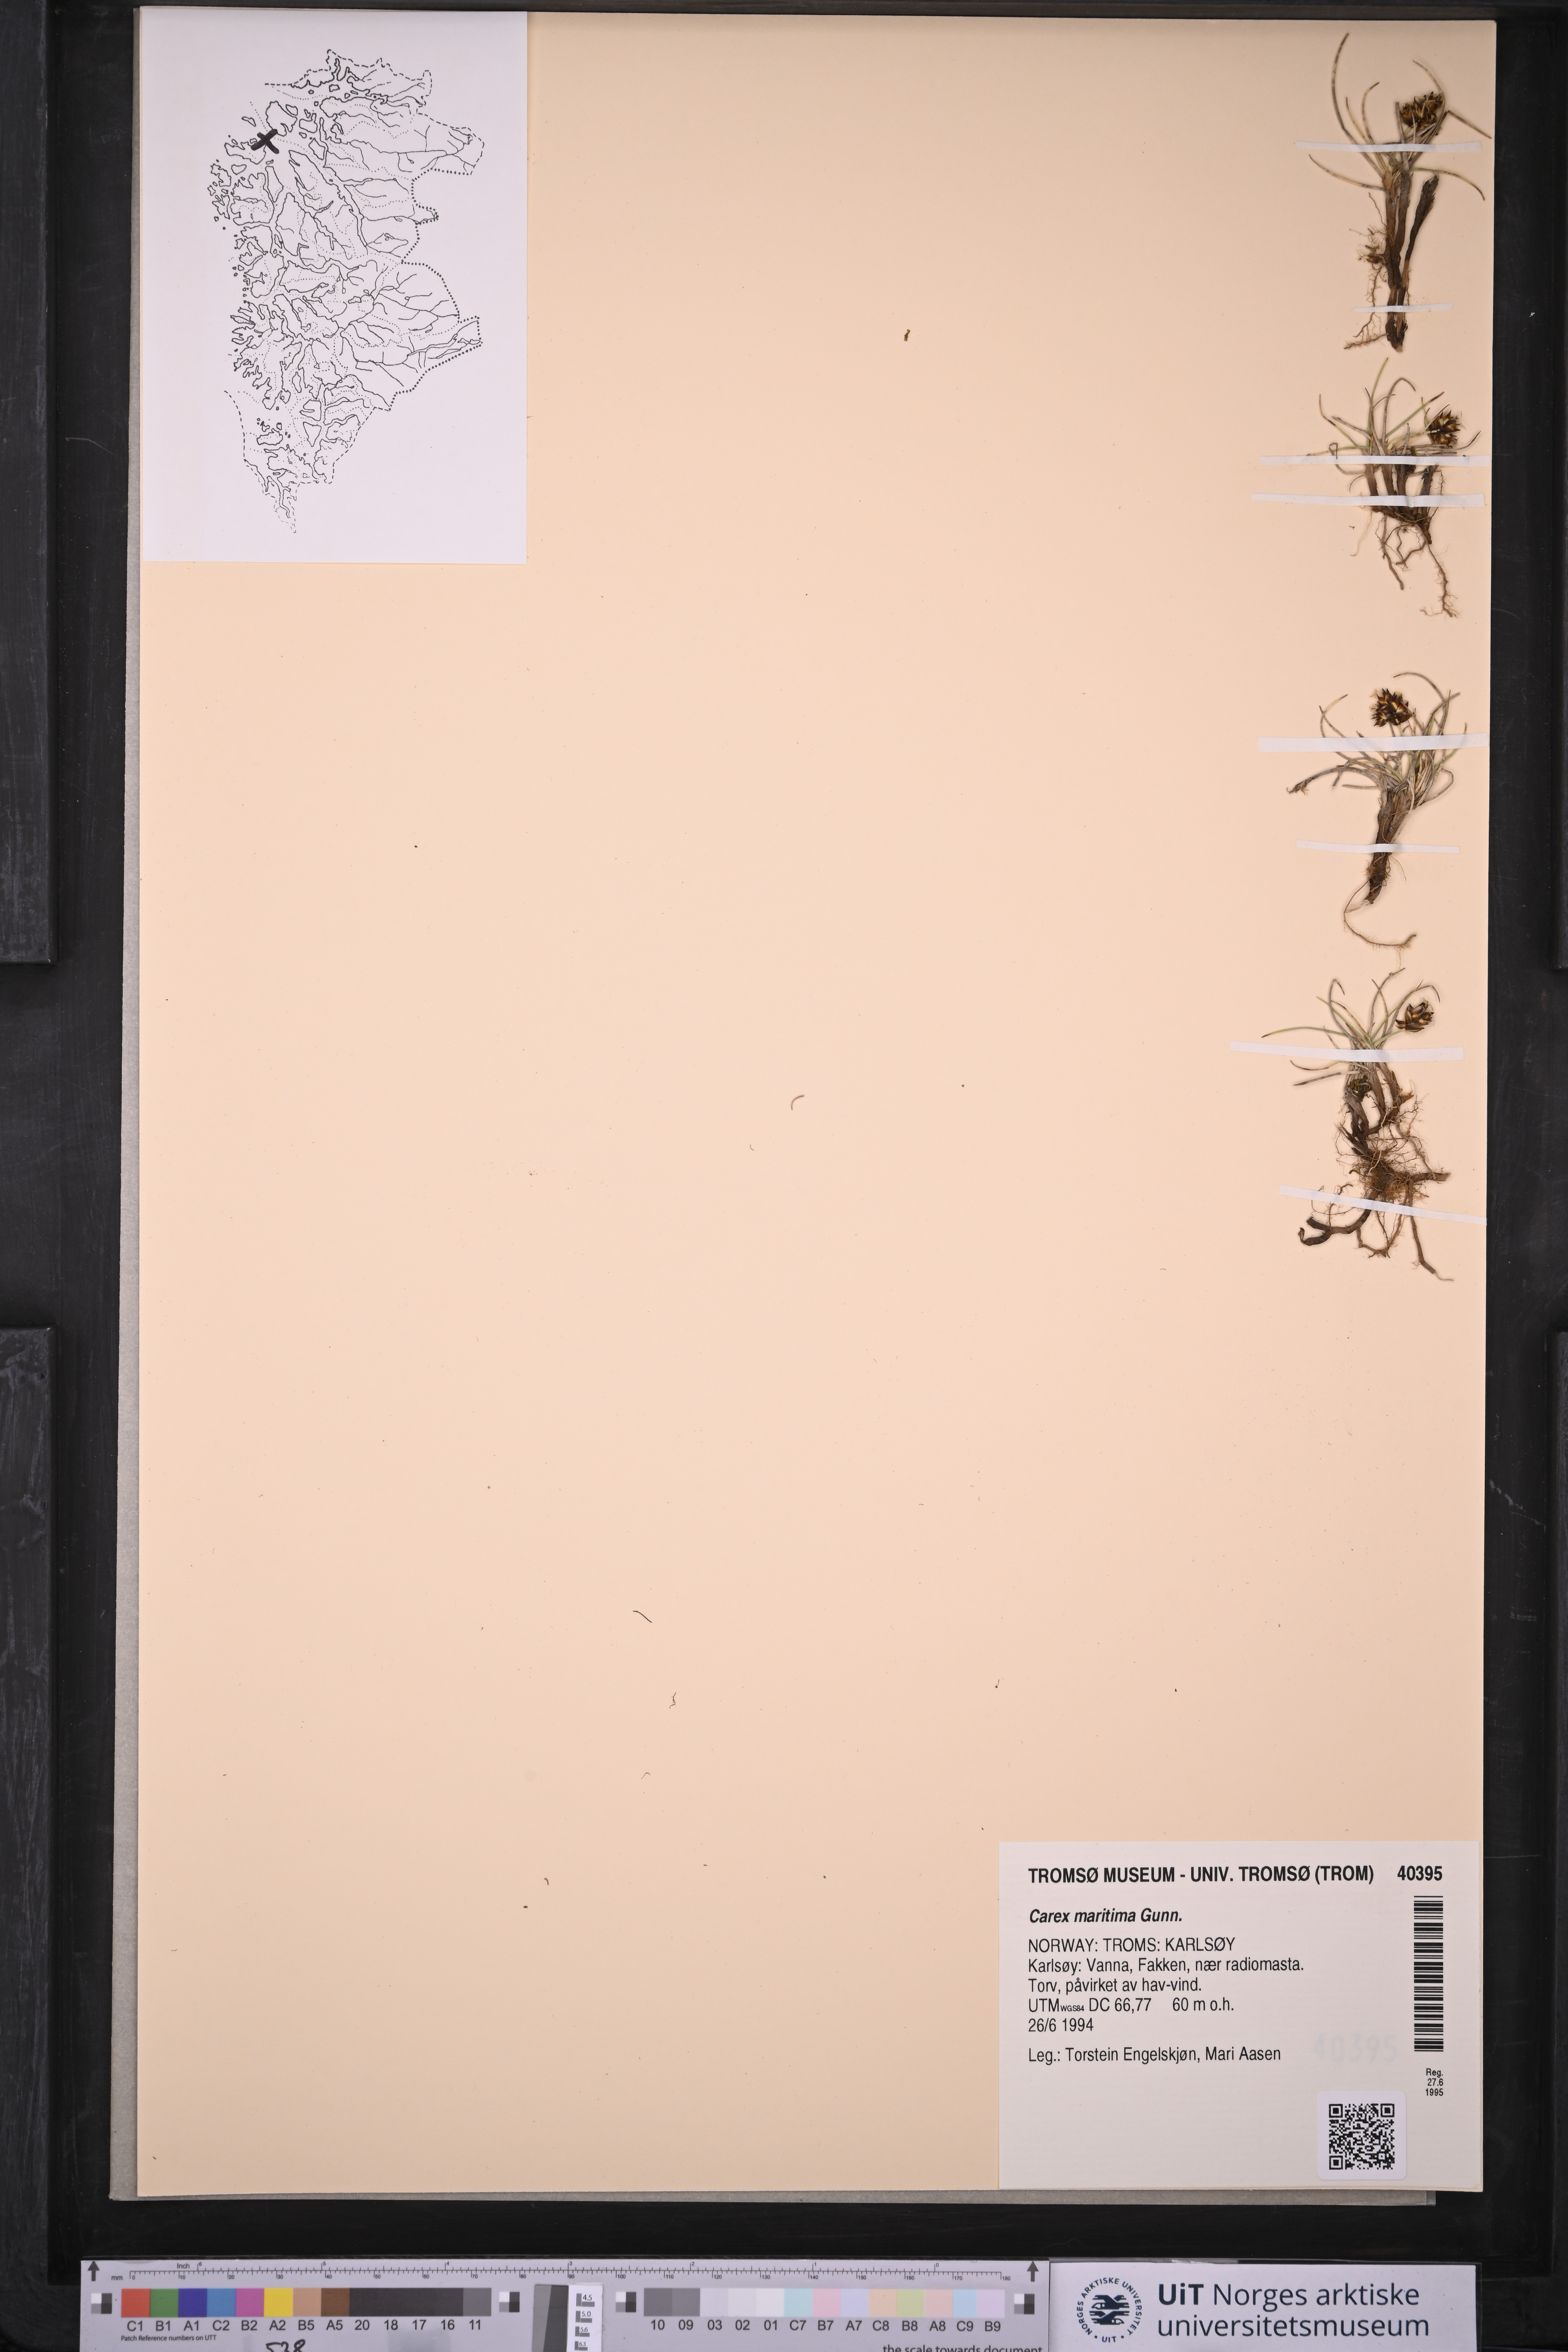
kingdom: Plantae
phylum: Tracheophyta
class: Liliopsida
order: Poales
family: Cyperaceae
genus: Carex
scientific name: Carex maritima
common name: Curved sedge
